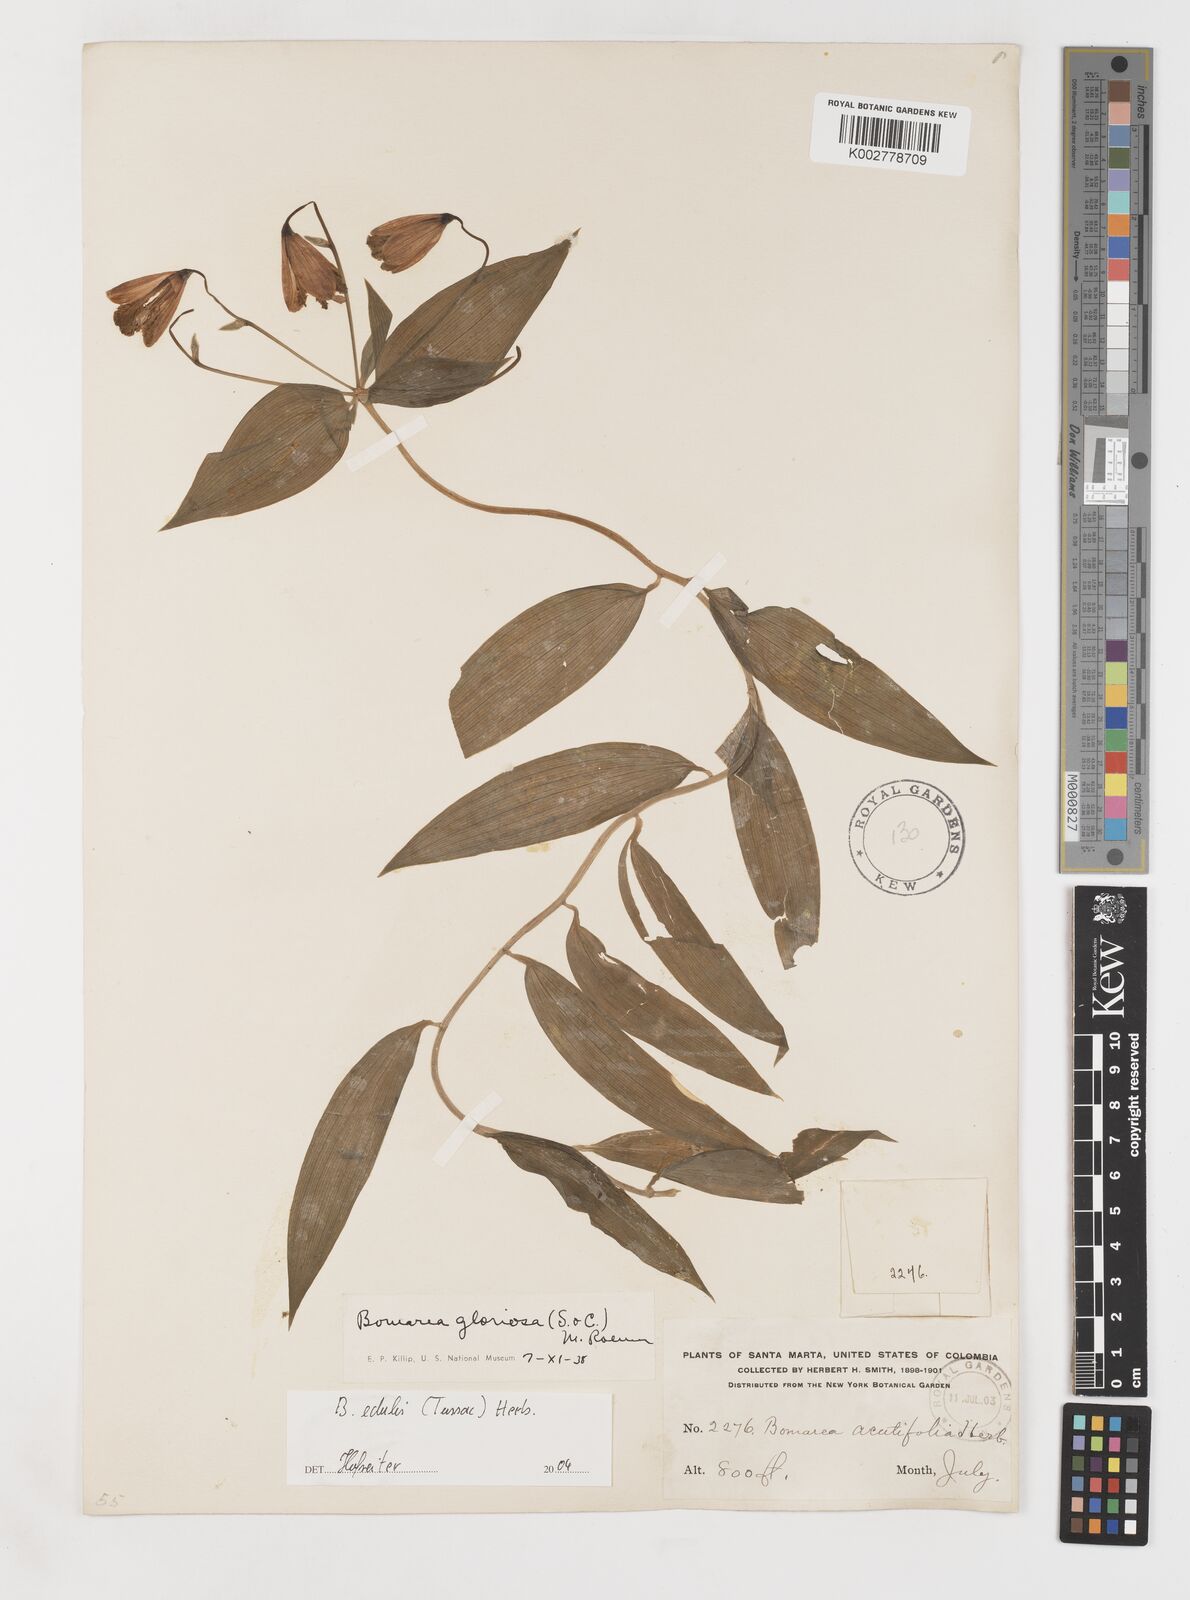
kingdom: Plantae
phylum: Tracheophyta
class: Liliopsida
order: Liliales
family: Alstroemeriaceae
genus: Bomarea
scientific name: Bomarea edulis
